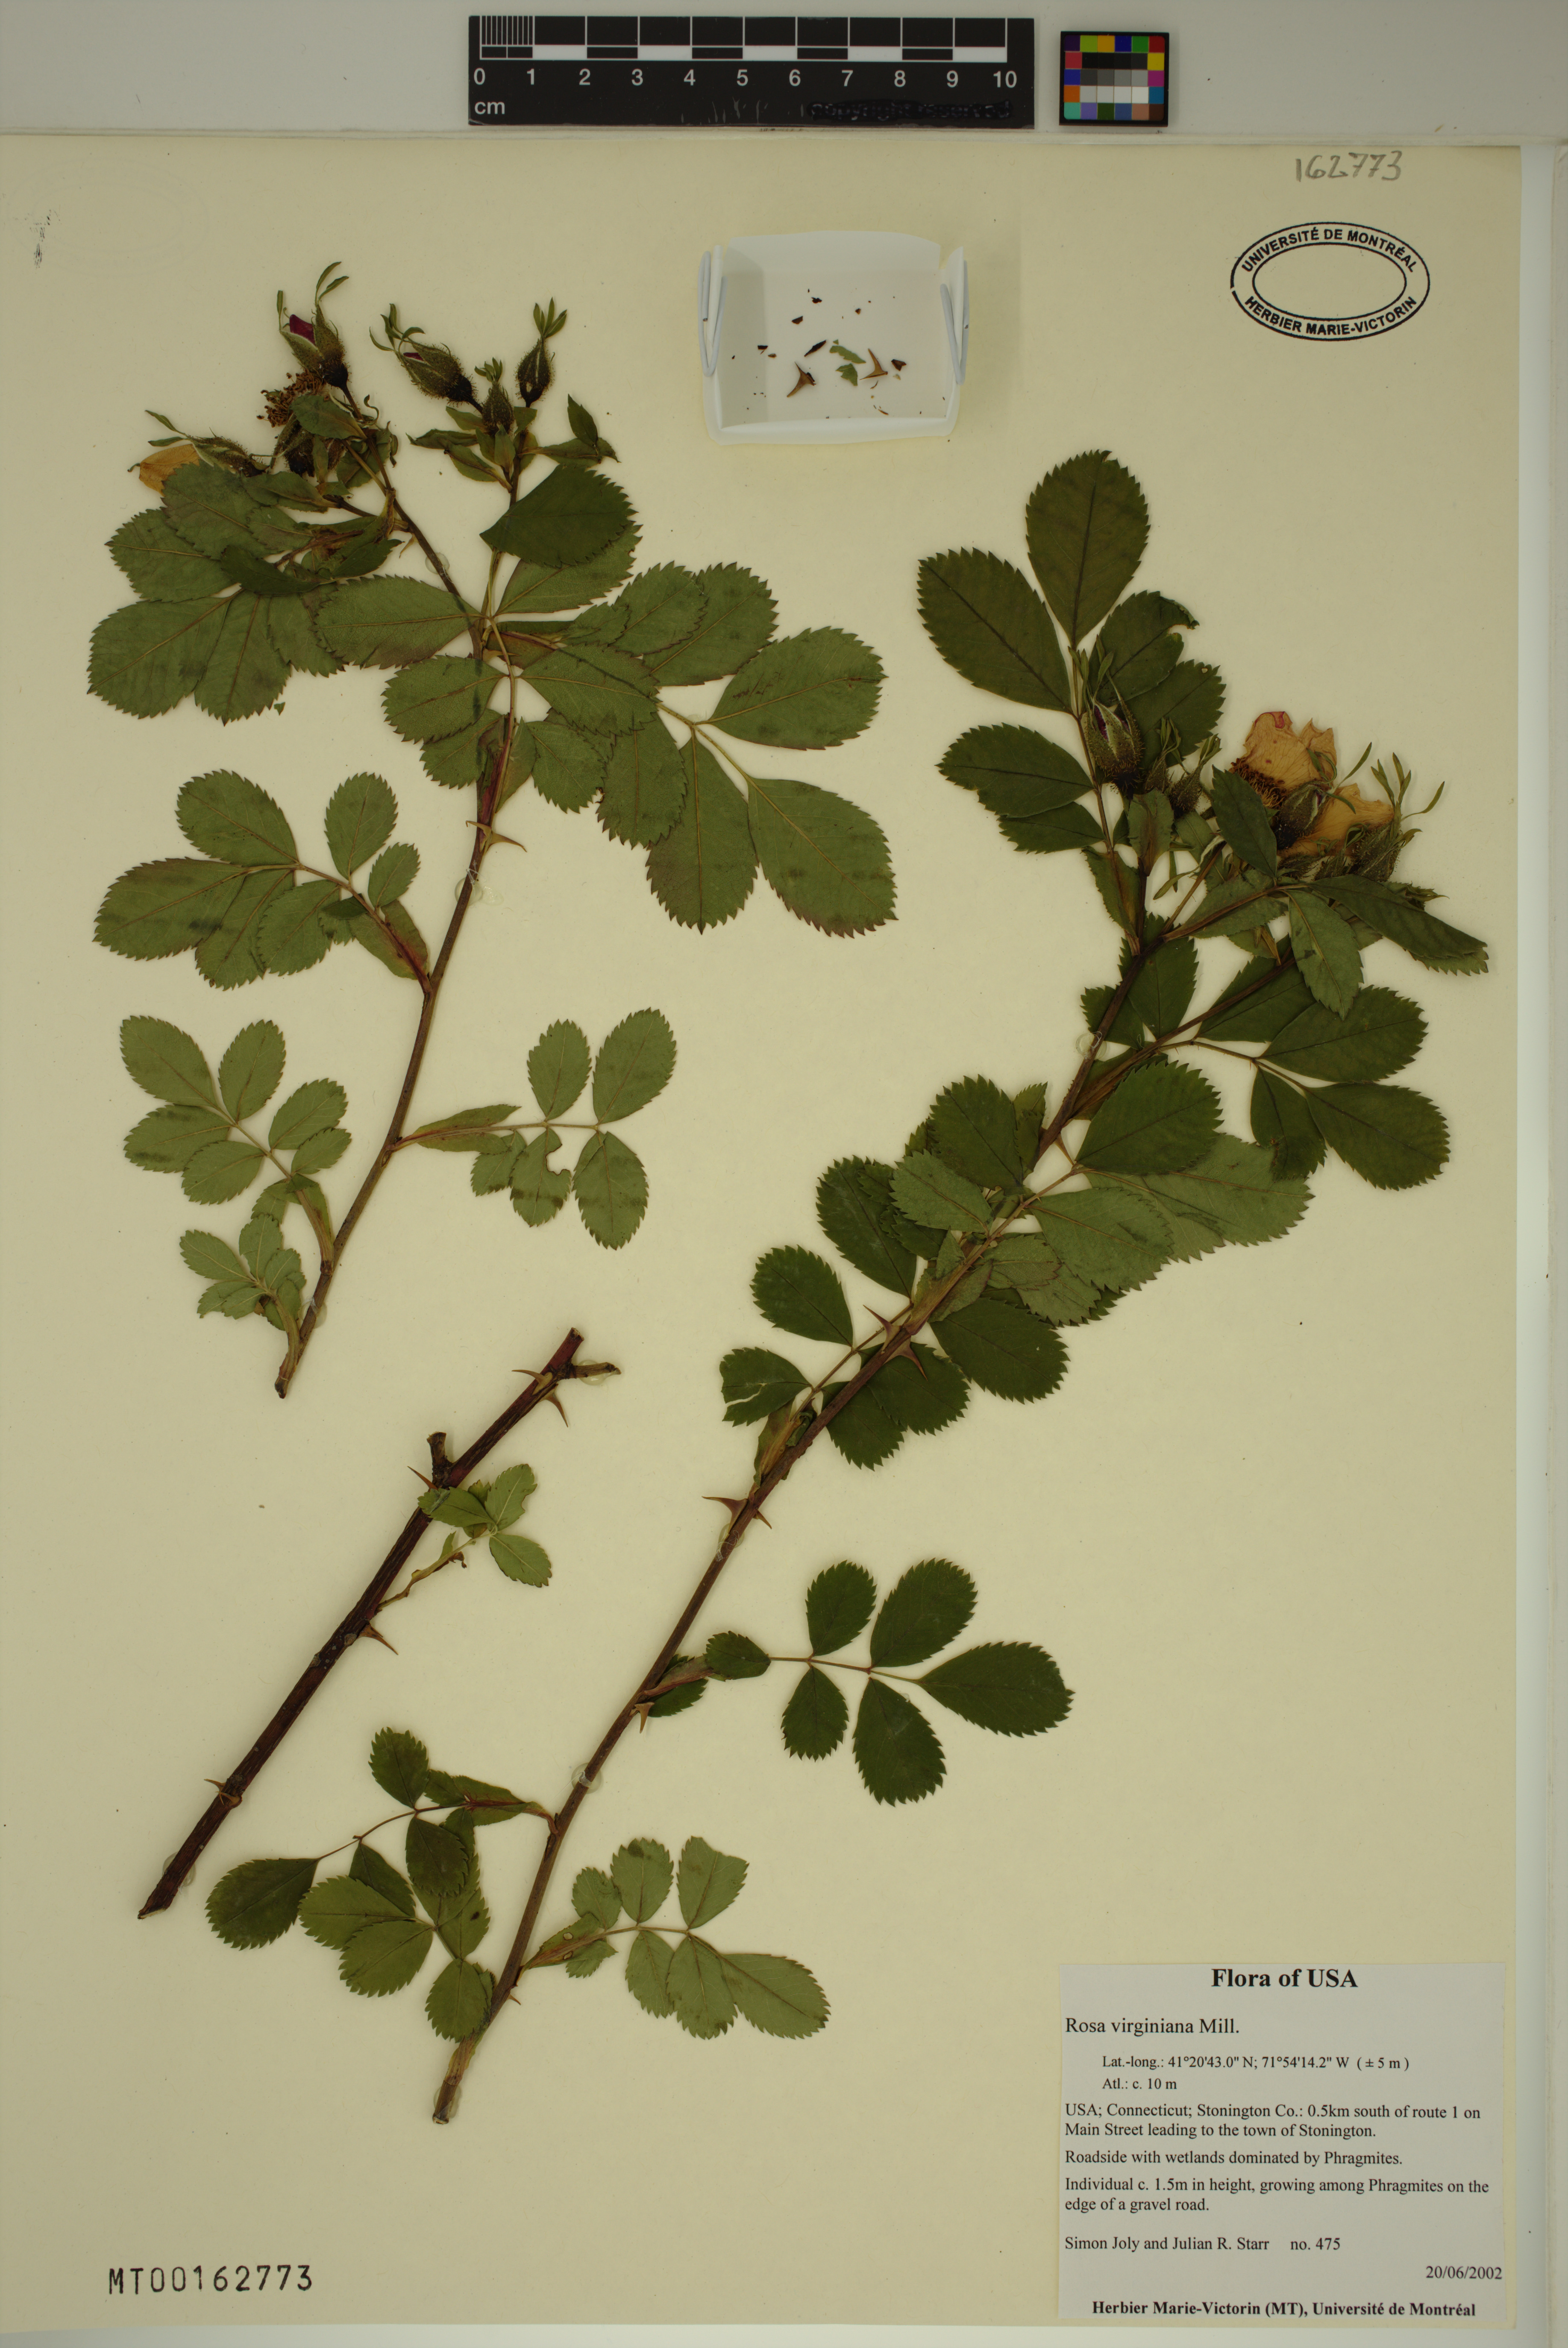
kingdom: Plantae
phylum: Tracheophyta
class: Magnoliopsida
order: Rosales
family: Rosaceae
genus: Rosa
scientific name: Rosa carolina
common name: Pasture rose
